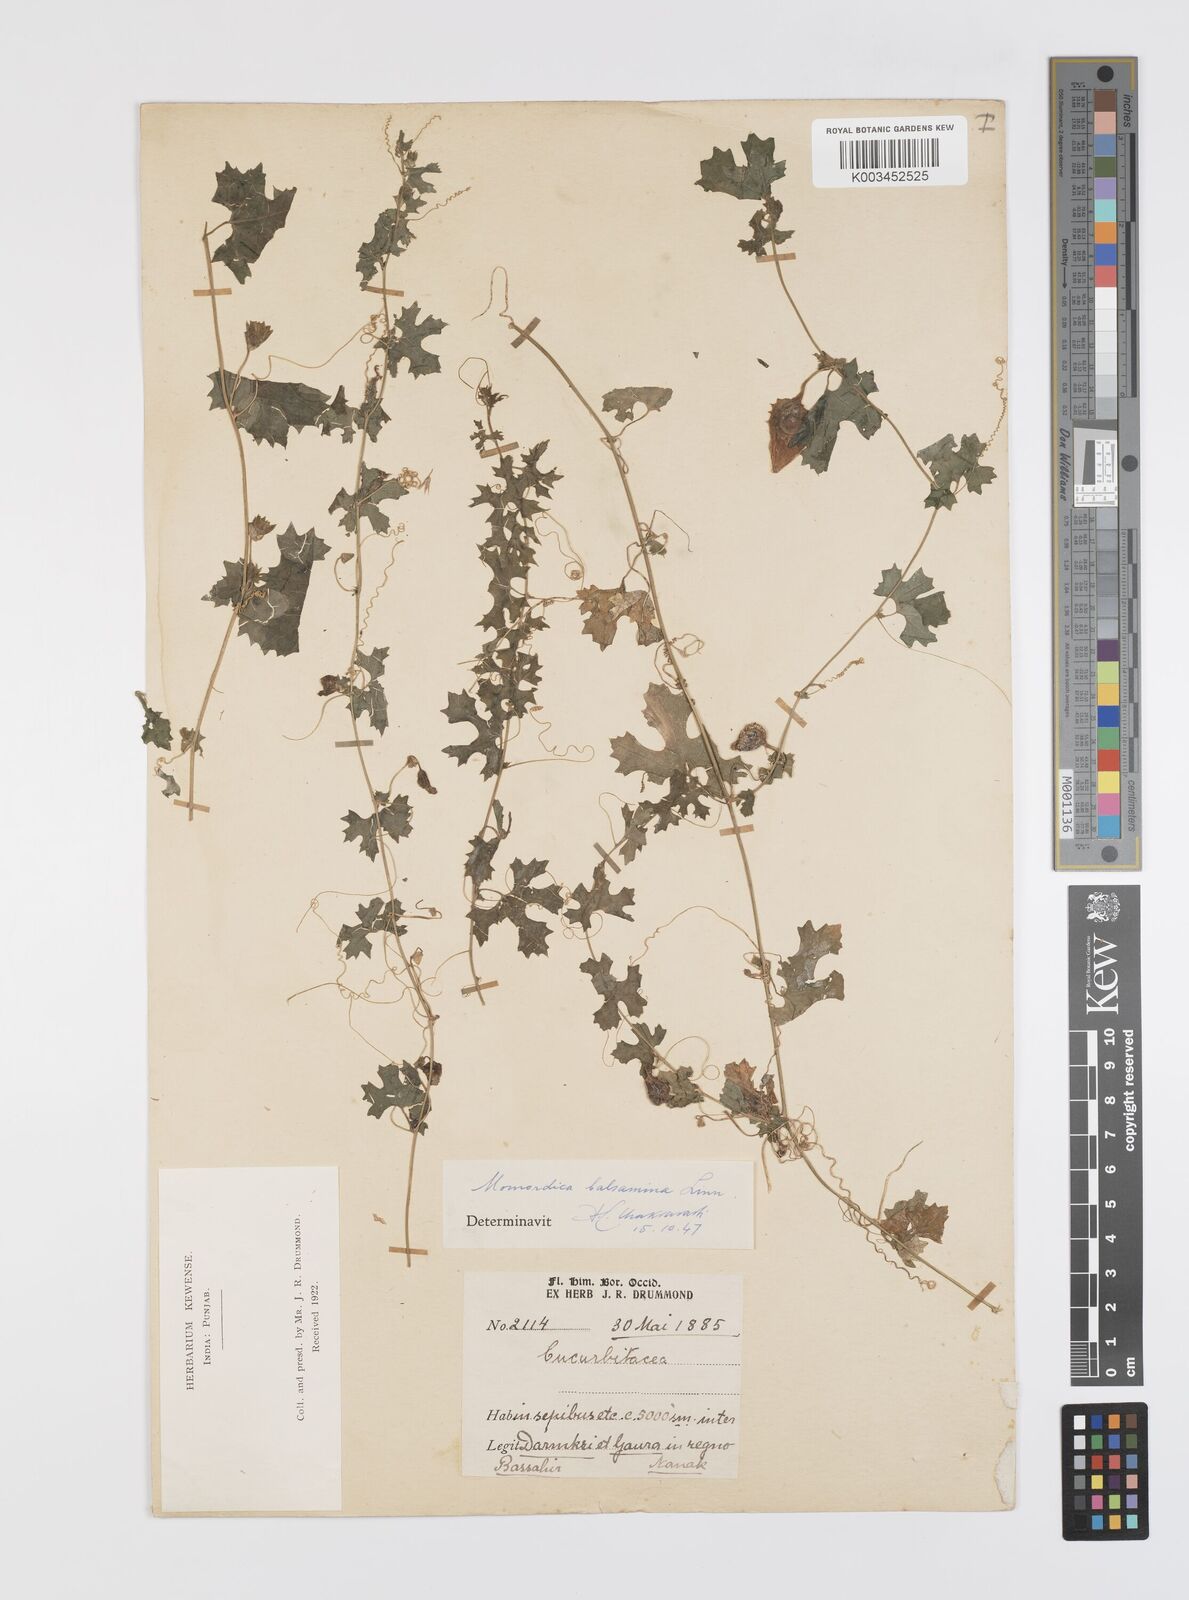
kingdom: Plantae
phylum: Tracheophyta
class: Magnoliopsida
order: Cucurbitales
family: Cucurbitaceae
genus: Momordica
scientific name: Momordica balsamina
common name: Southern balsampear
